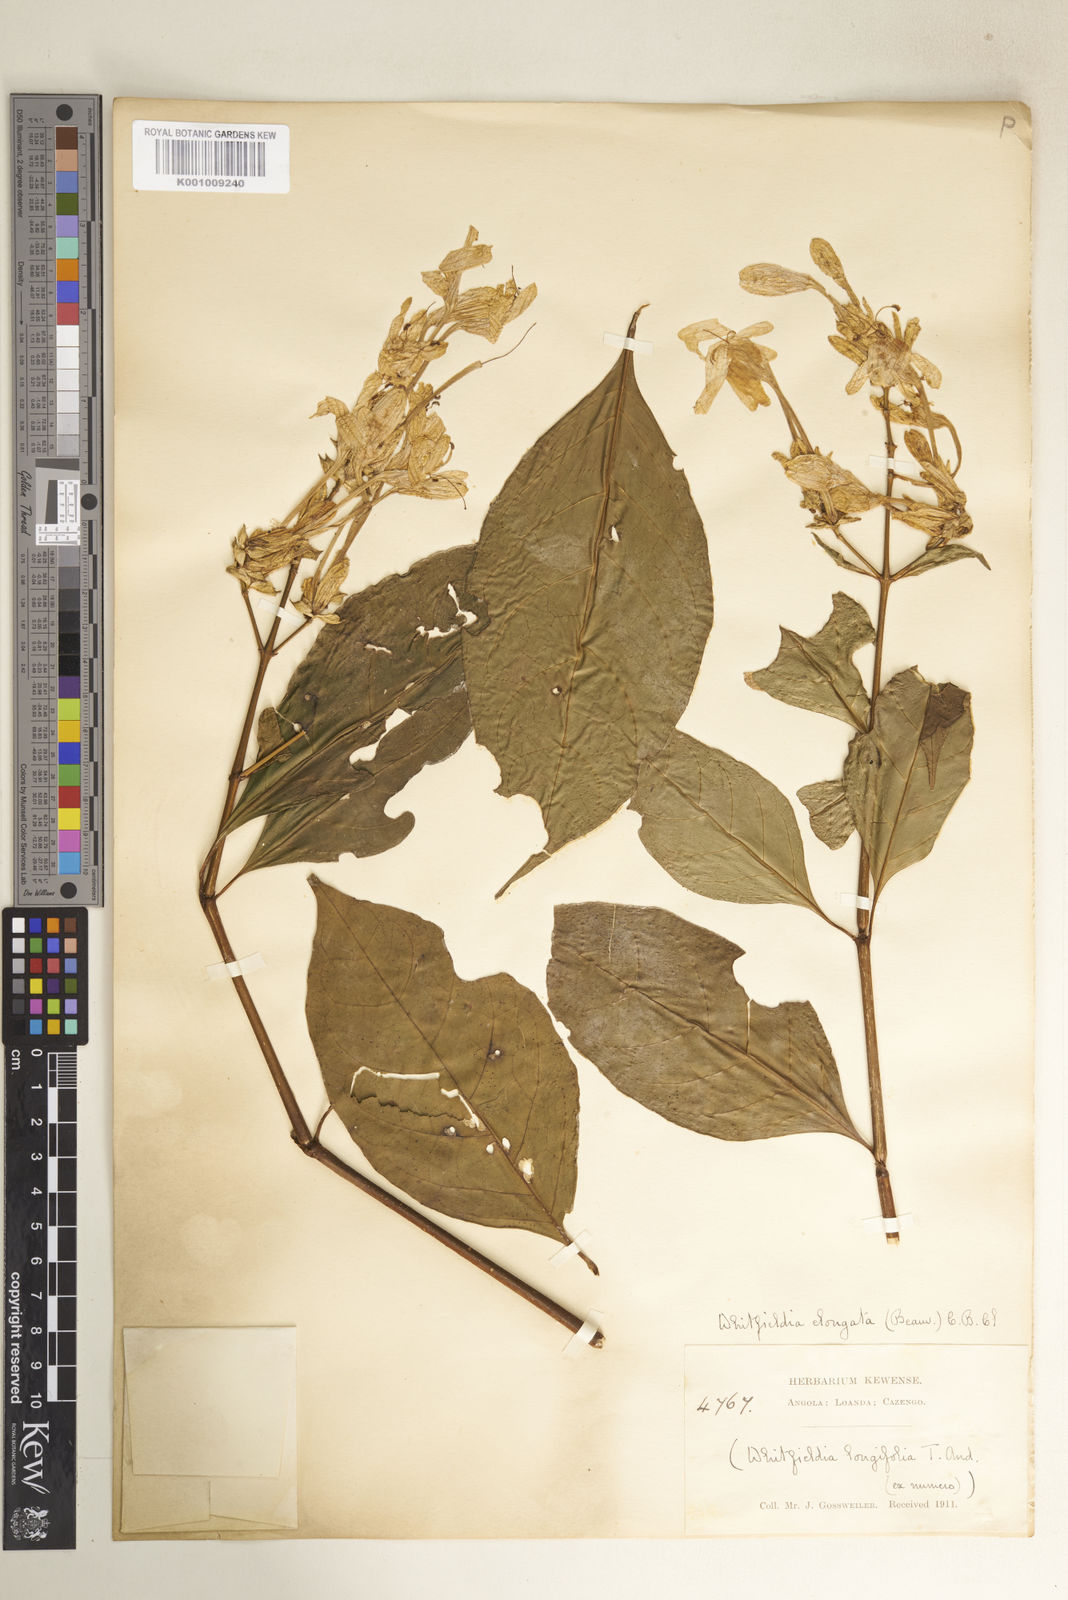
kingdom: Plantae
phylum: Tracheophyta
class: Magnoliopsida
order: Lamiales
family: Acanthaceae
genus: Whitfieldia
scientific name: Whitfieldia elongata
